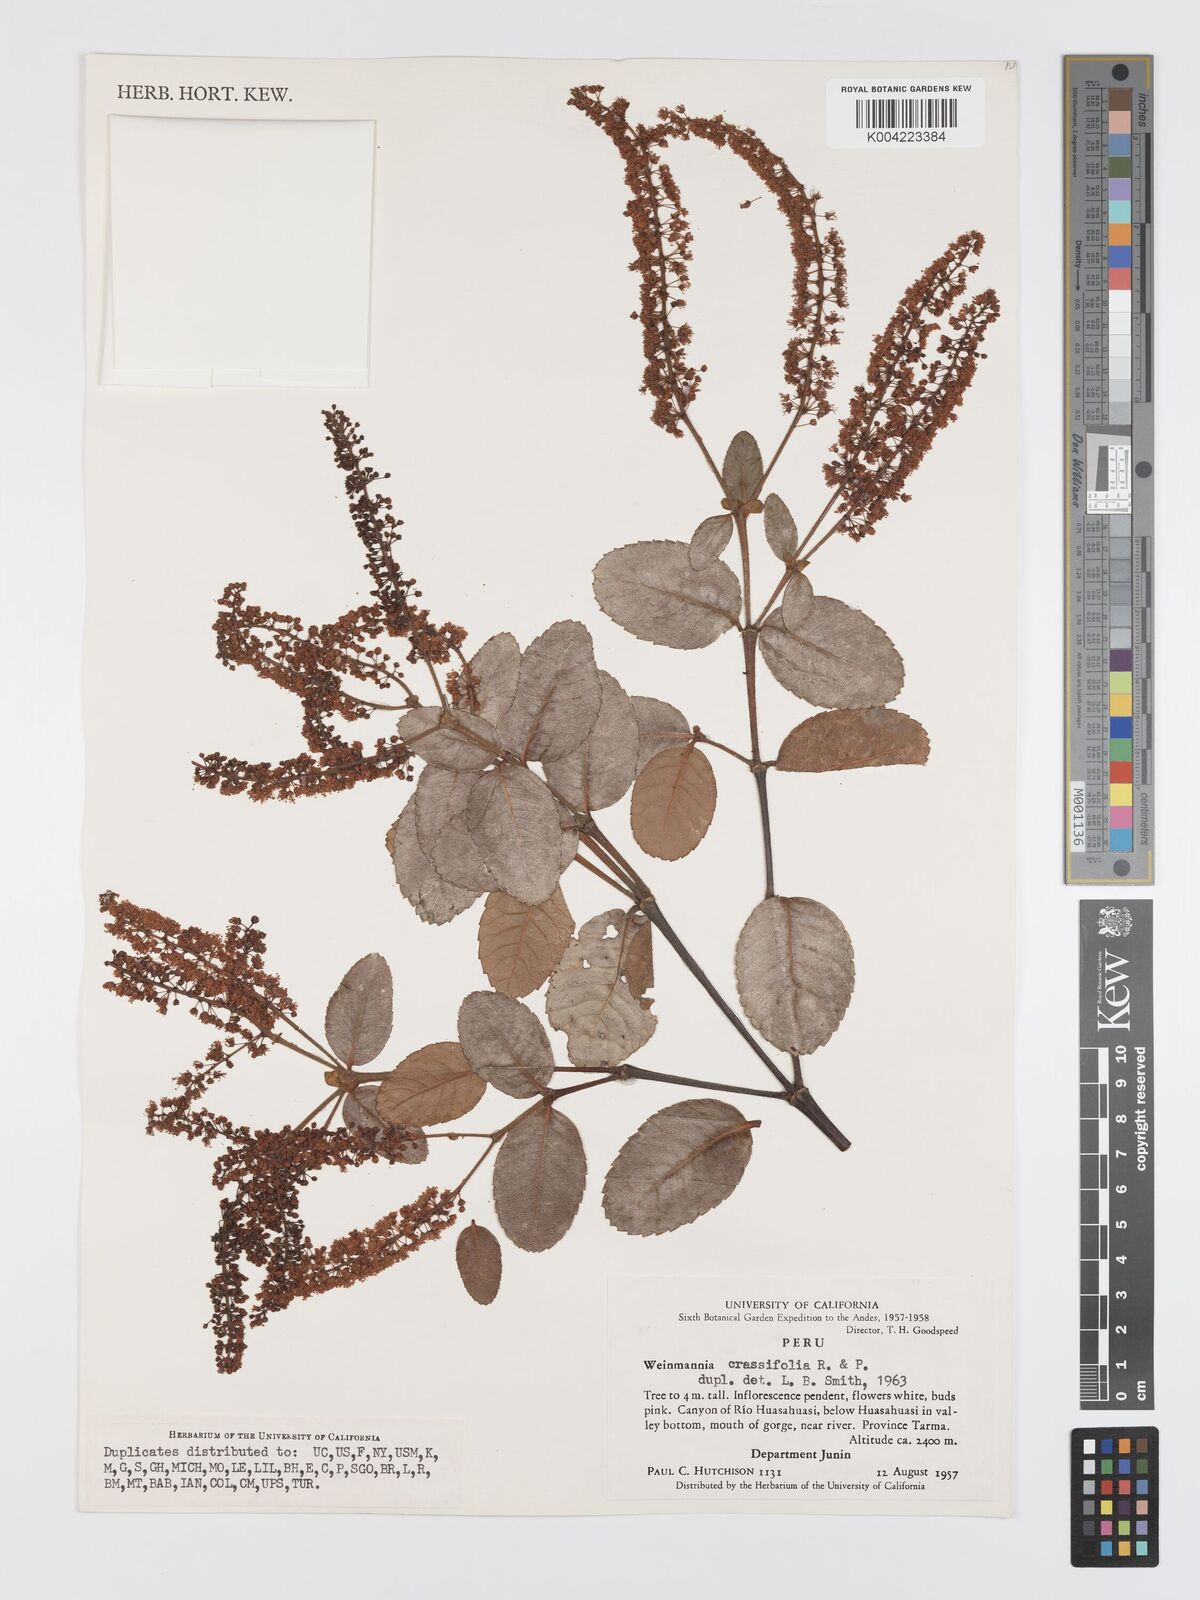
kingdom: Plantae
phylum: Tracheophyta
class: Magnoliopsida
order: Oxalidales
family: Cunoniaceae
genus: Weinmannia
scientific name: Weinmannia crassifolia
